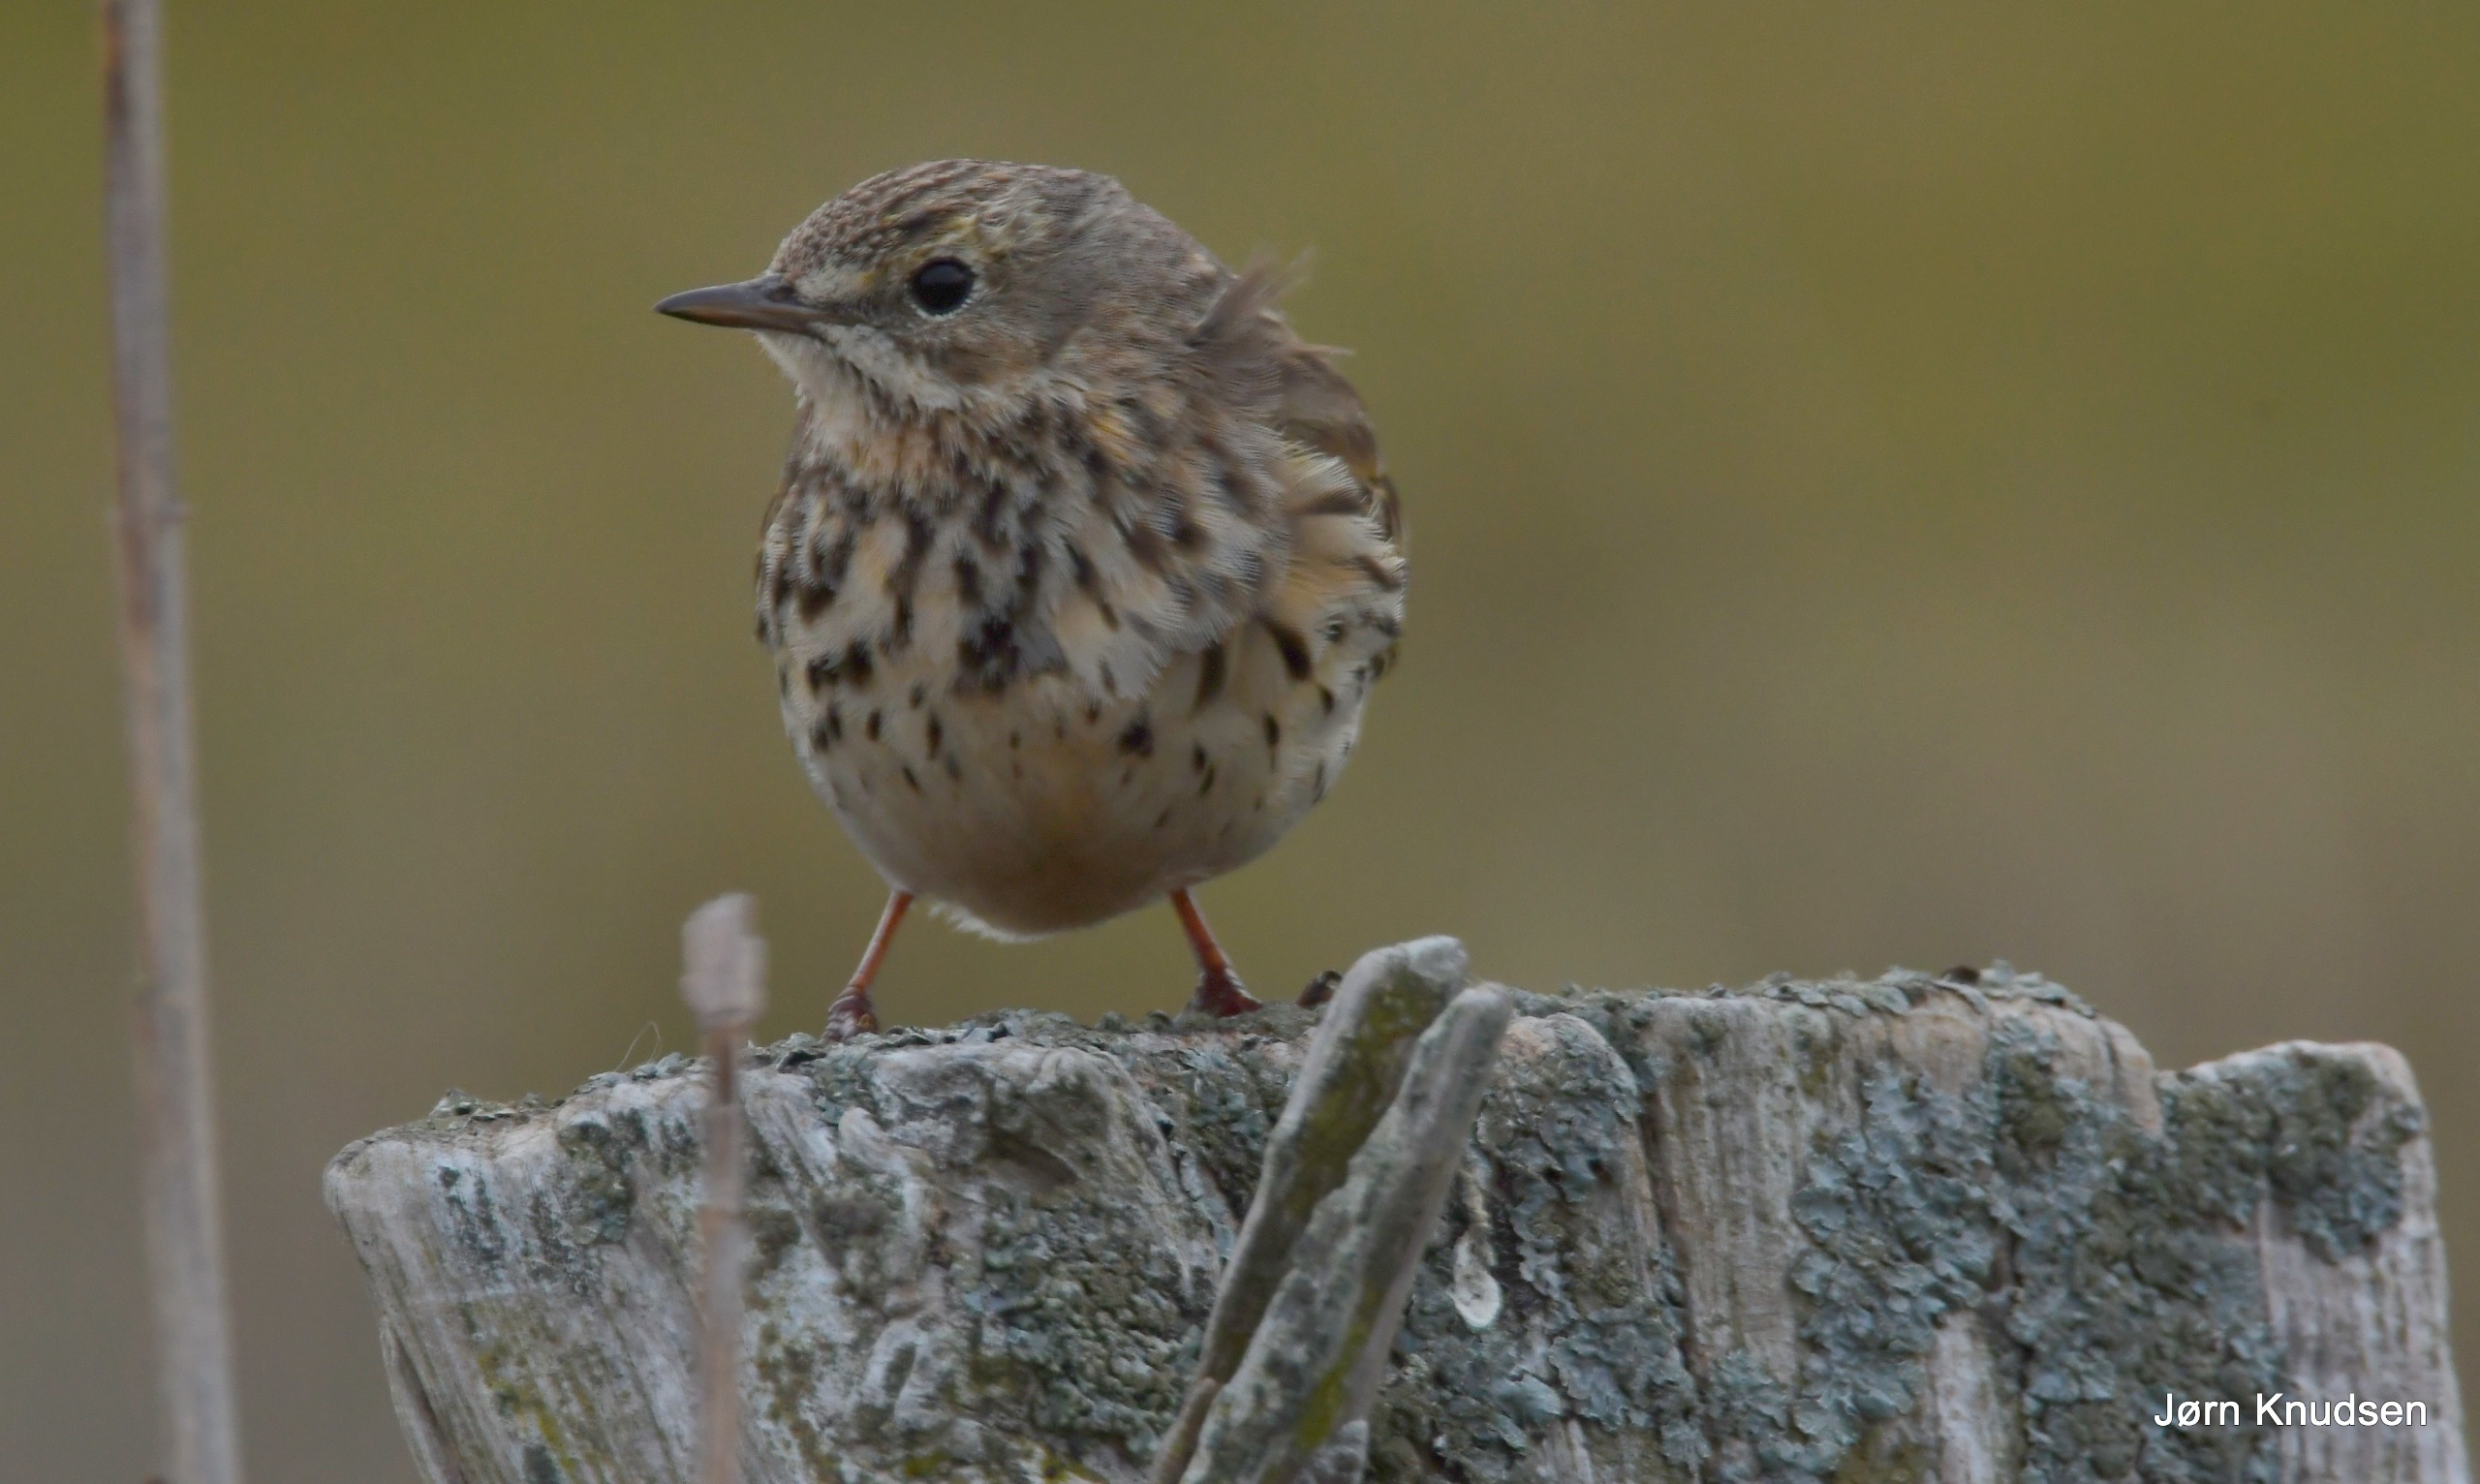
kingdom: Animalia
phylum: Chordata
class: Aves
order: Passeriformes
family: Motacillidae
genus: Anthus
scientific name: Anthus pratensis
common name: Engpiber
